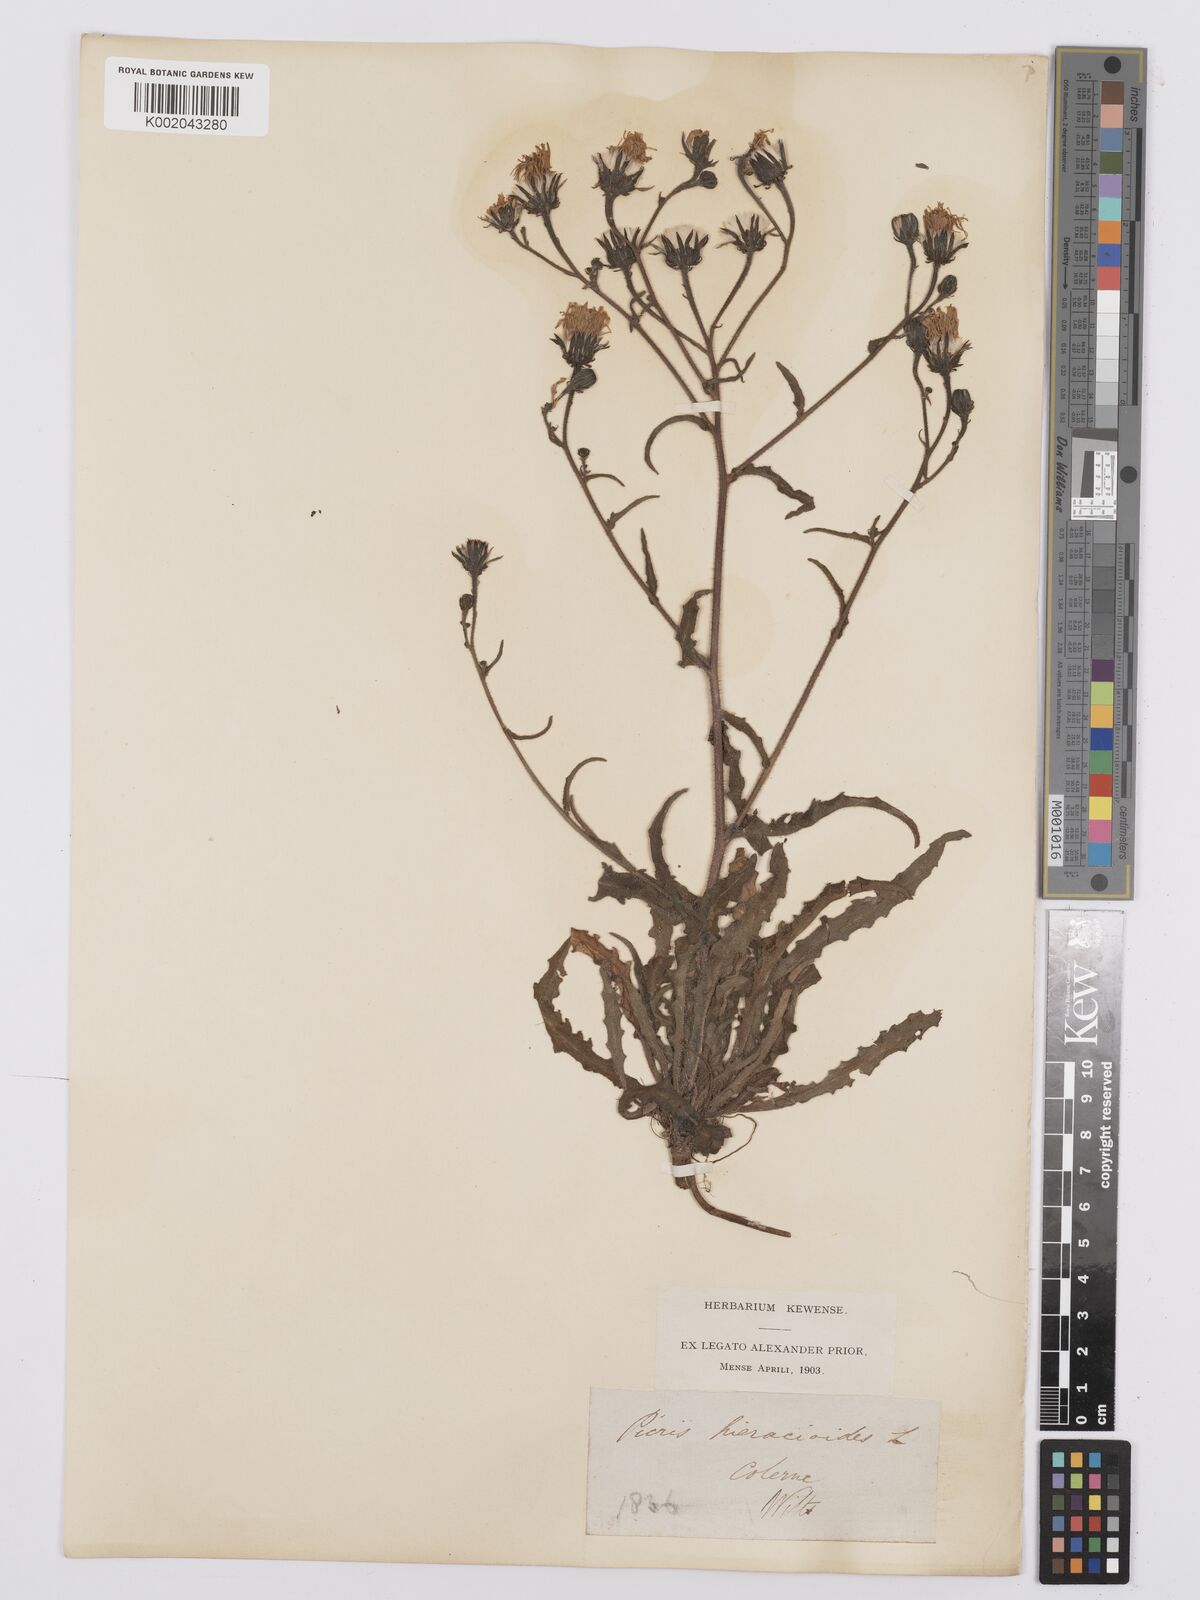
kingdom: Plantae
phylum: Tracheophyta
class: Magnoliopsida
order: Asterales
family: Asteraceae
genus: Picris
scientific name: Picris hieracioides
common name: Hawkweed oxtongue
